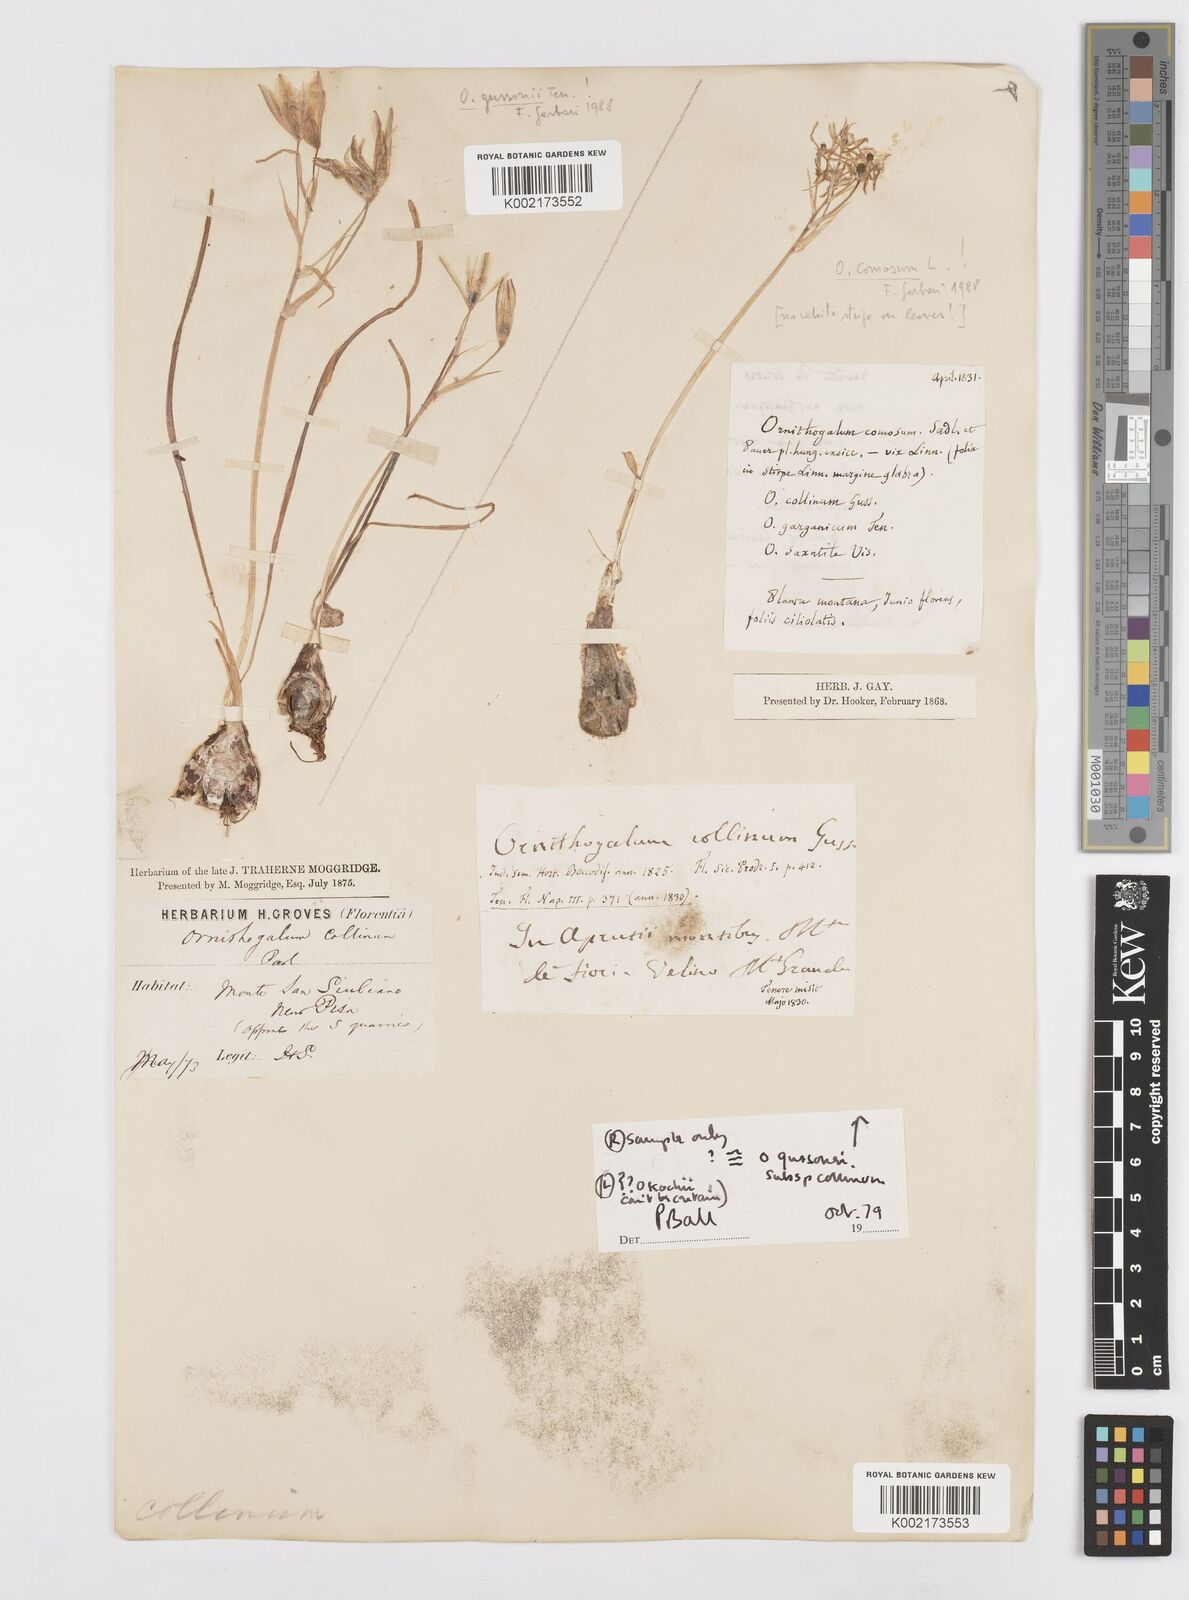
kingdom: Plantae
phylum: Tracheophyta
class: Liliopsida
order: Asparagales
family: Asparagaceae
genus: Ornithogalum
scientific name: Ornithogalum gussonei
